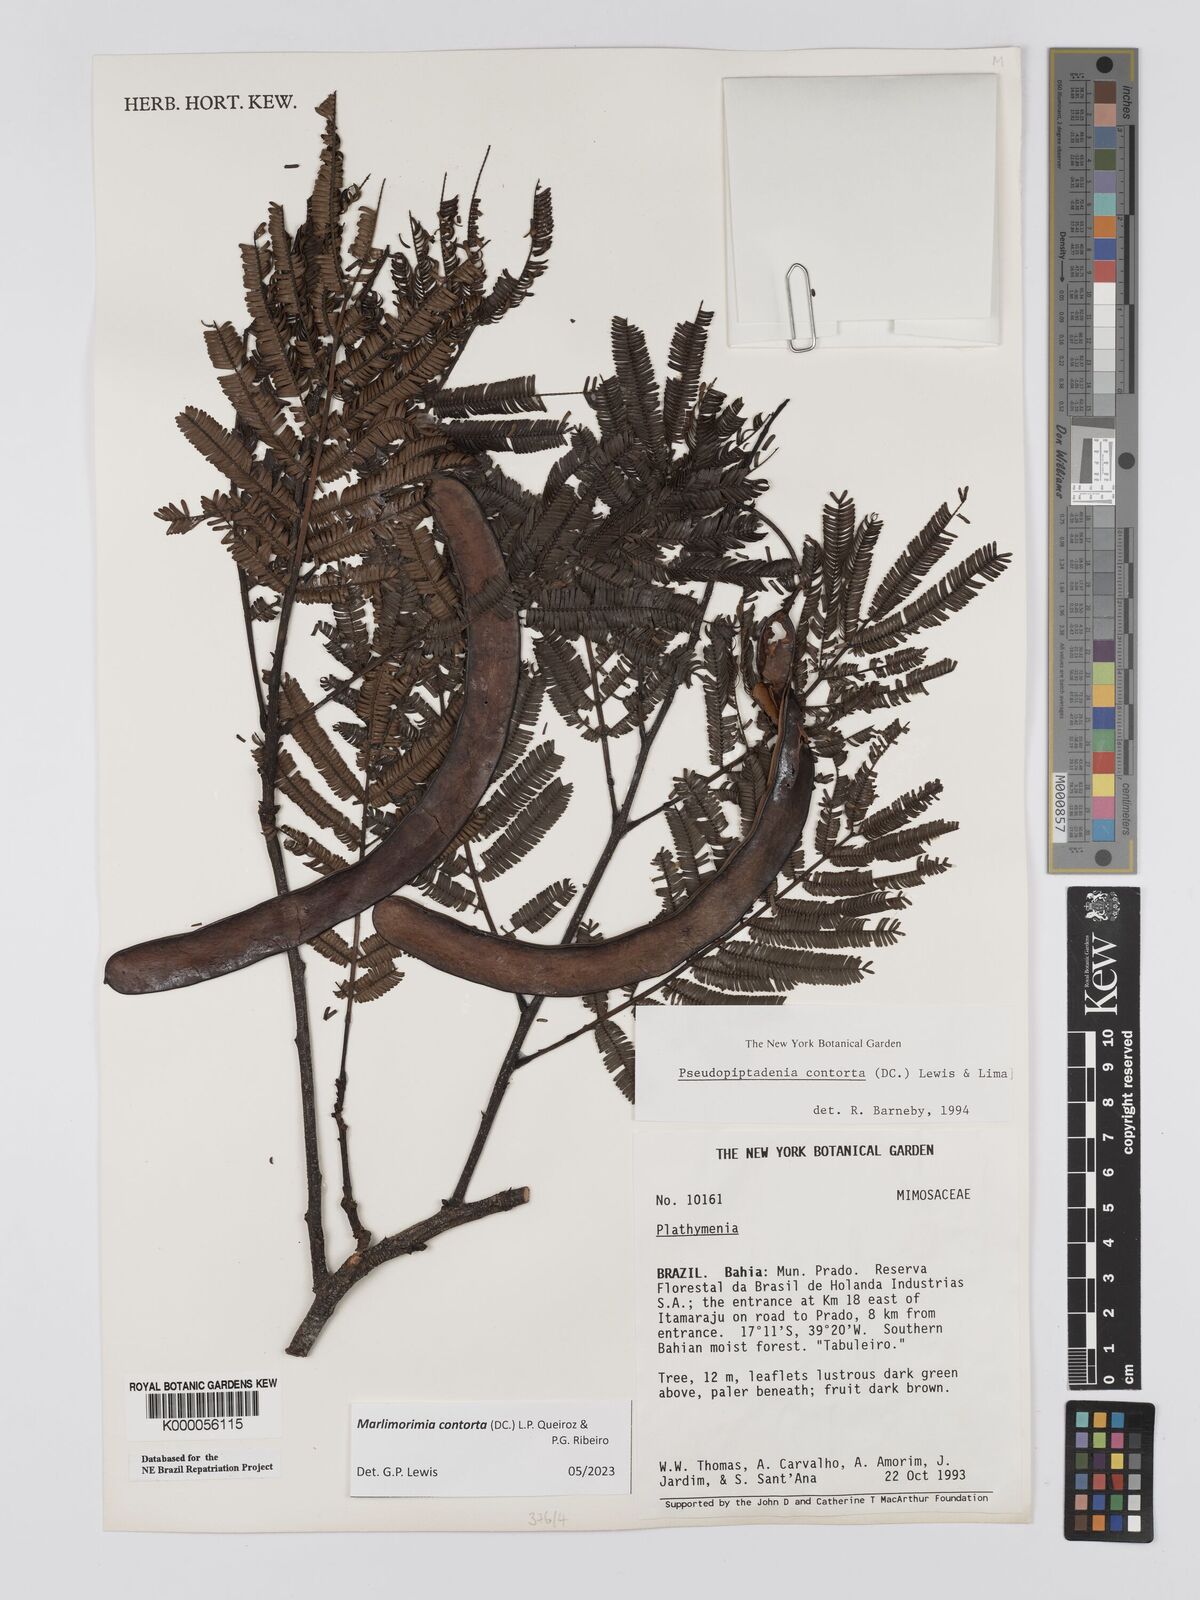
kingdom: Plantae
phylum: Tracheophyta
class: Magnoliopsida
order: Fabales
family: Fabaceae
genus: Pseudopiptadenia
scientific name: Pseudopiptadenia contorta
